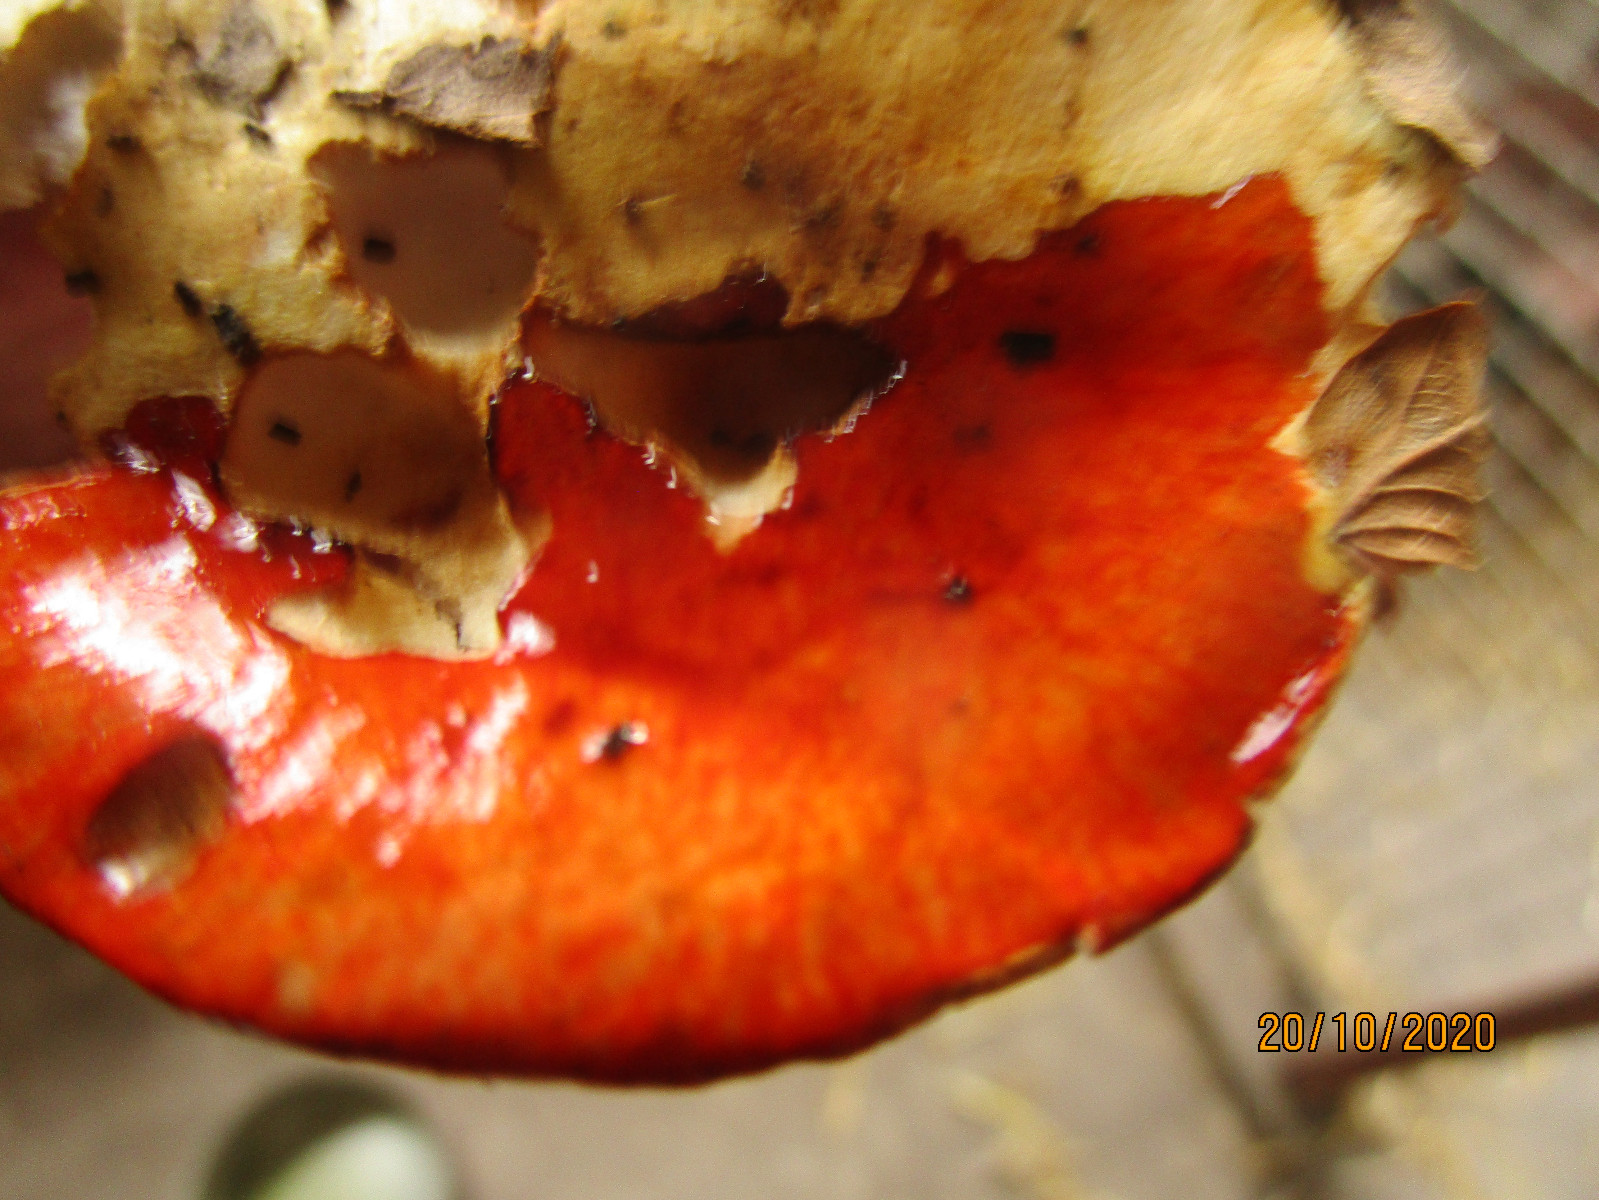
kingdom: Fungi
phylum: Basidiomycota
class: Agaricomycetes
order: Agaricales
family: Cortinariaceae
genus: Calonarius
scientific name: Calonarius catharinae
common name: Katrines slørhat
